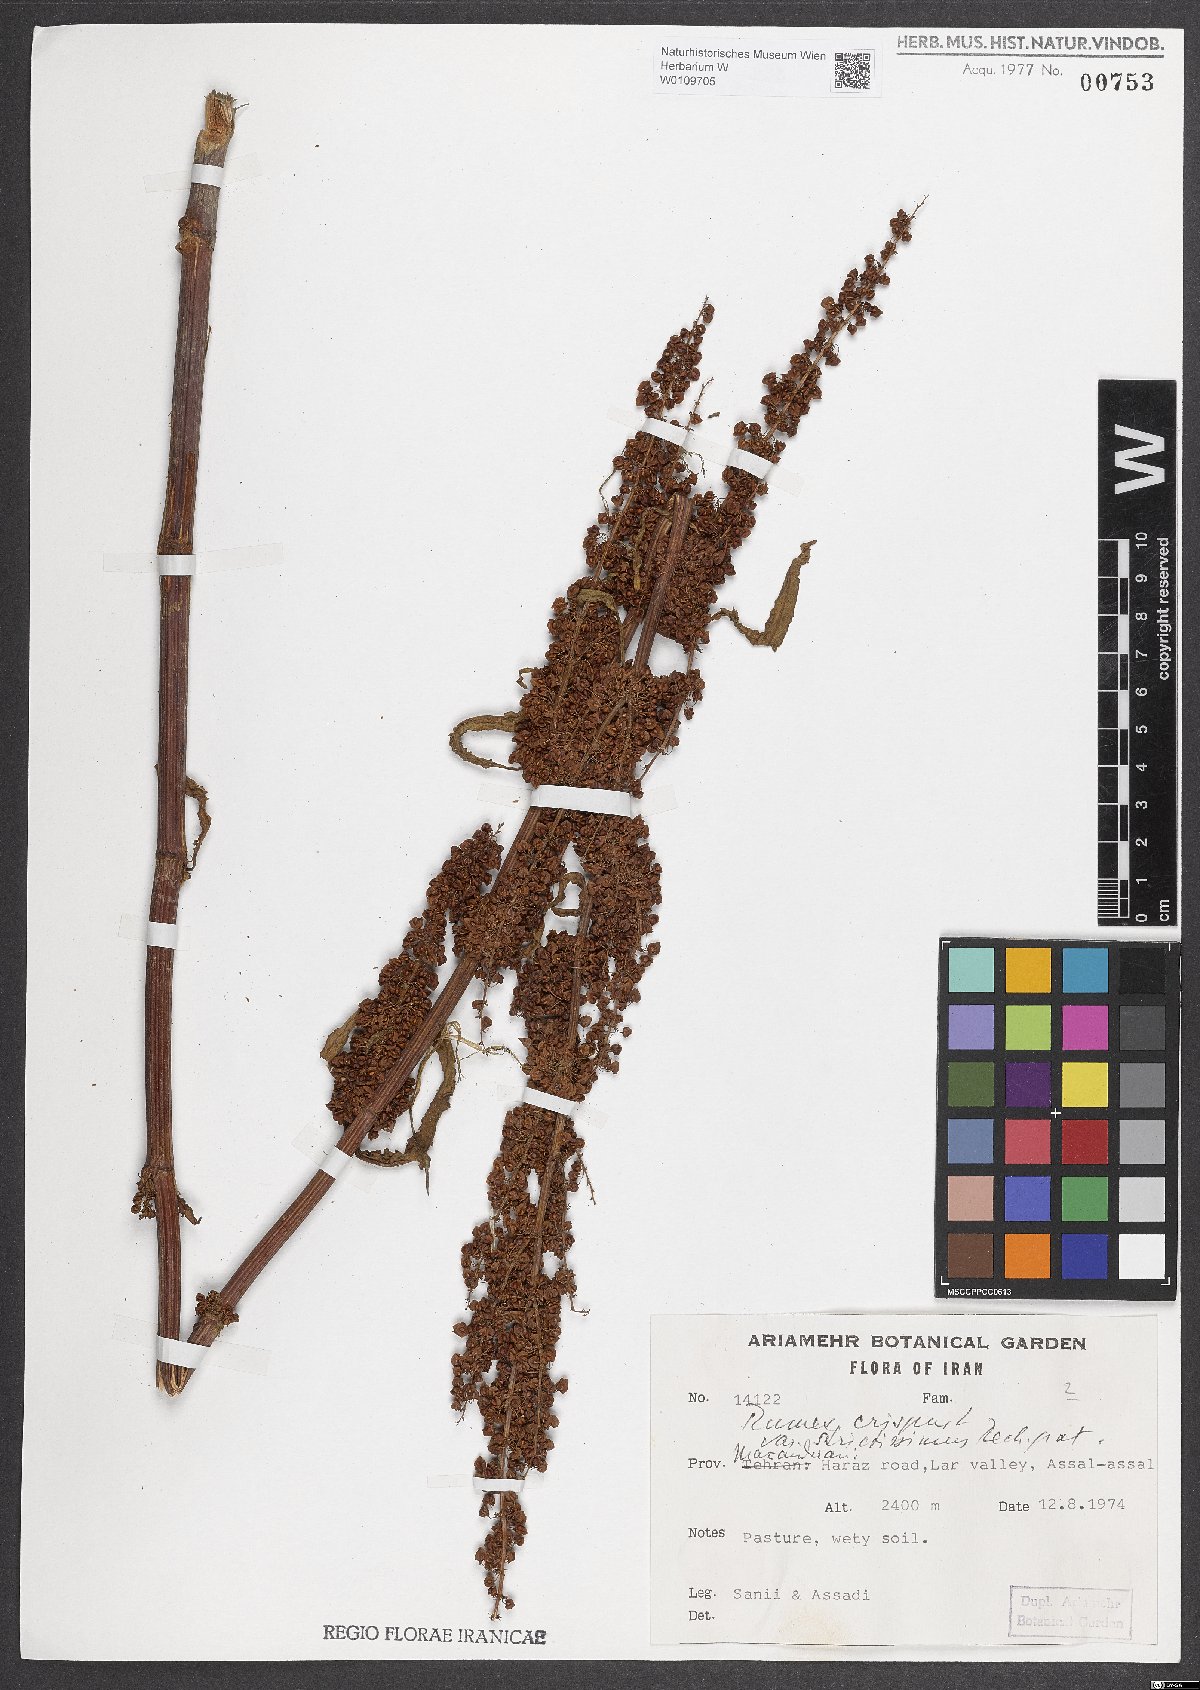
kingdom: Plantae
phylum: Tracheophyta
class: Magnoliopsida
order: Caryophyllales
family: Polygonaceae
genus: Rumex
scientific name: Rumex crispus
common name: Curled dock
